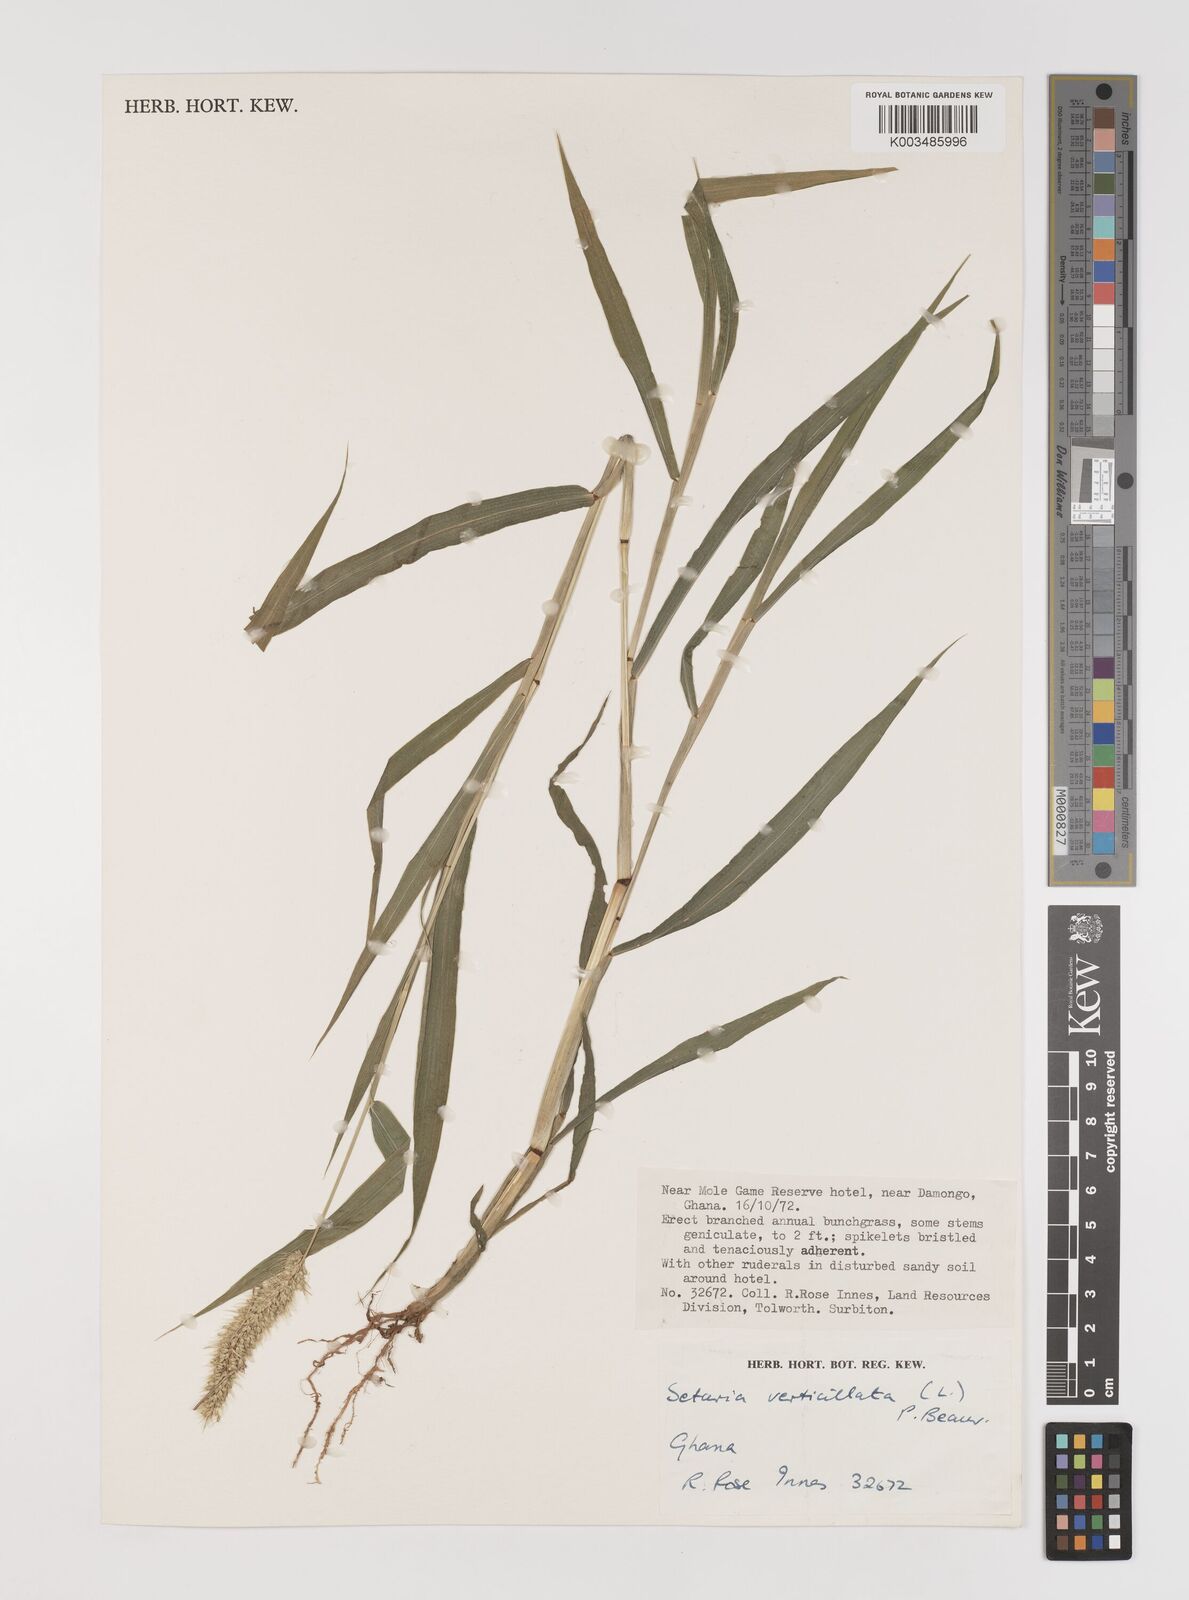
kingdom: Plantae
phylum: Tracheophyta
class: Liliopsida
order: Poales
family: Poaceae
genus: Setaria
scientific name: Setaria verticillata
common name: Hooked bristlegrass
